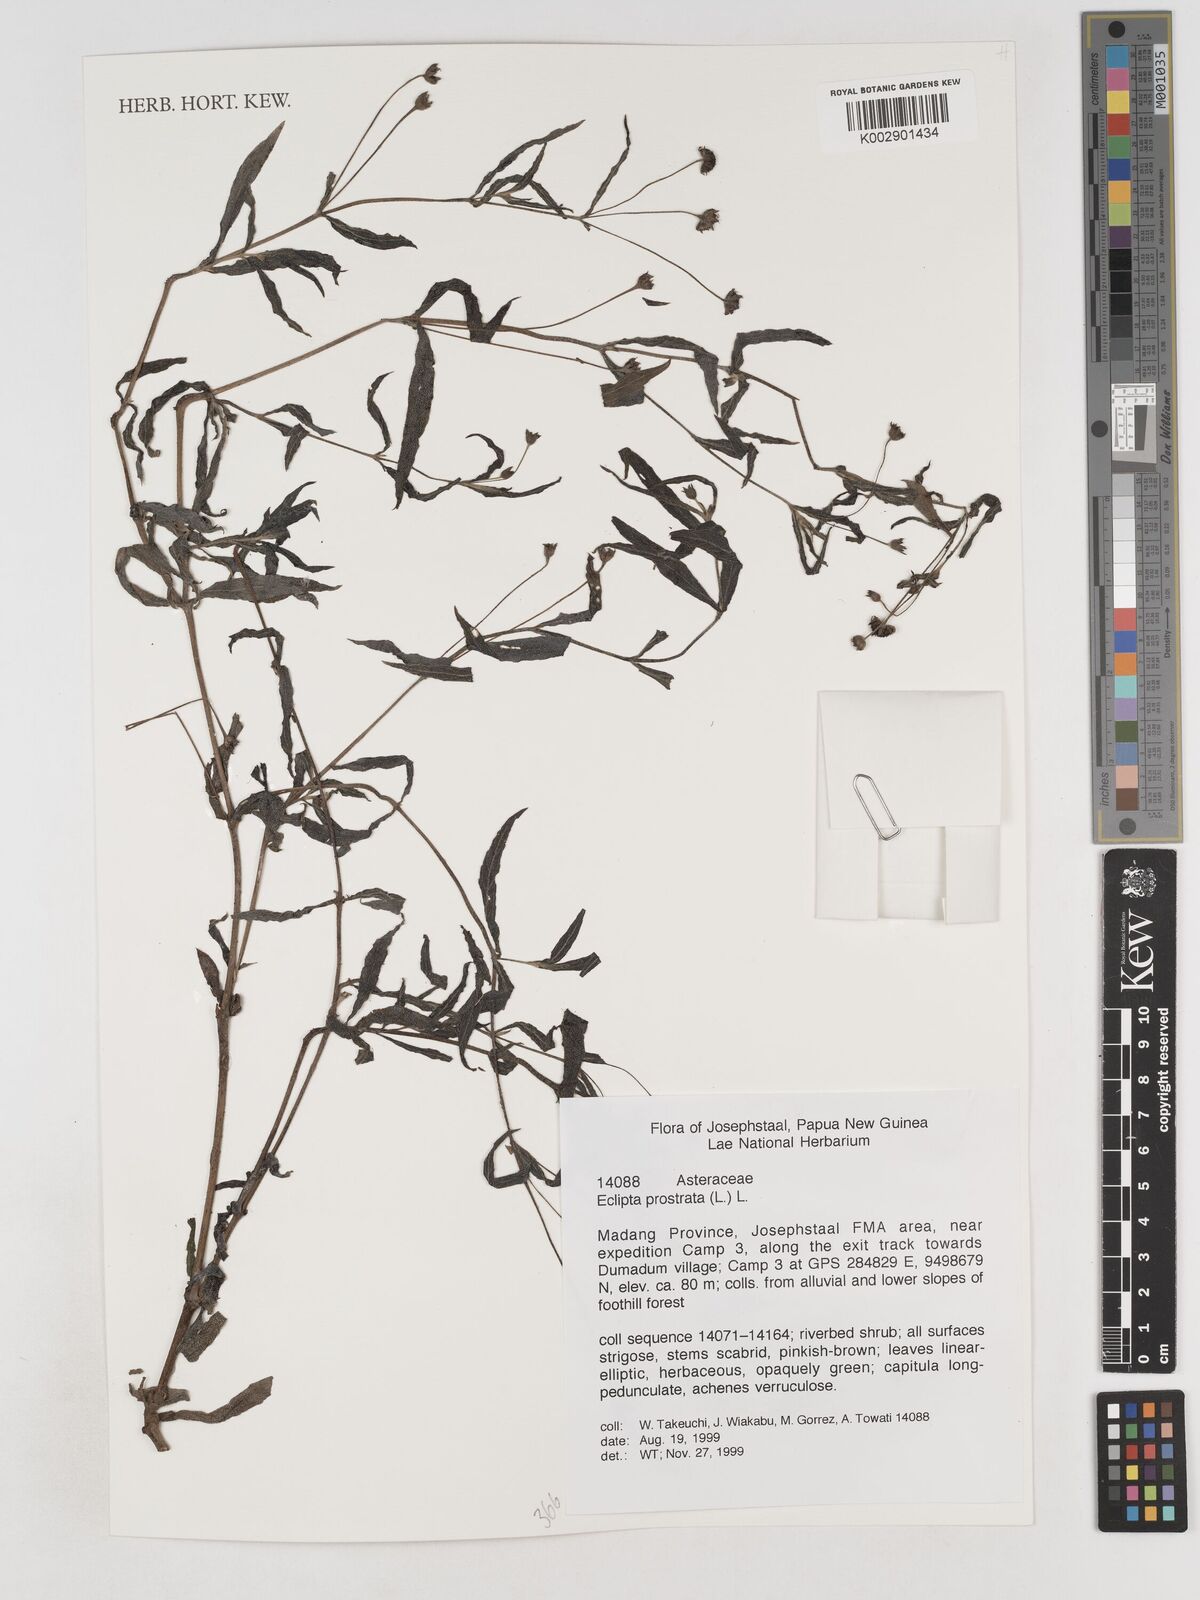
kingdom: Plantae
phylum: Tracheophyta
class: Magnoliopsida
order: Asterales
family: Asteraceae
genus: Eclipta
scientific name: Eclipta prostrata
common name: False daisy
